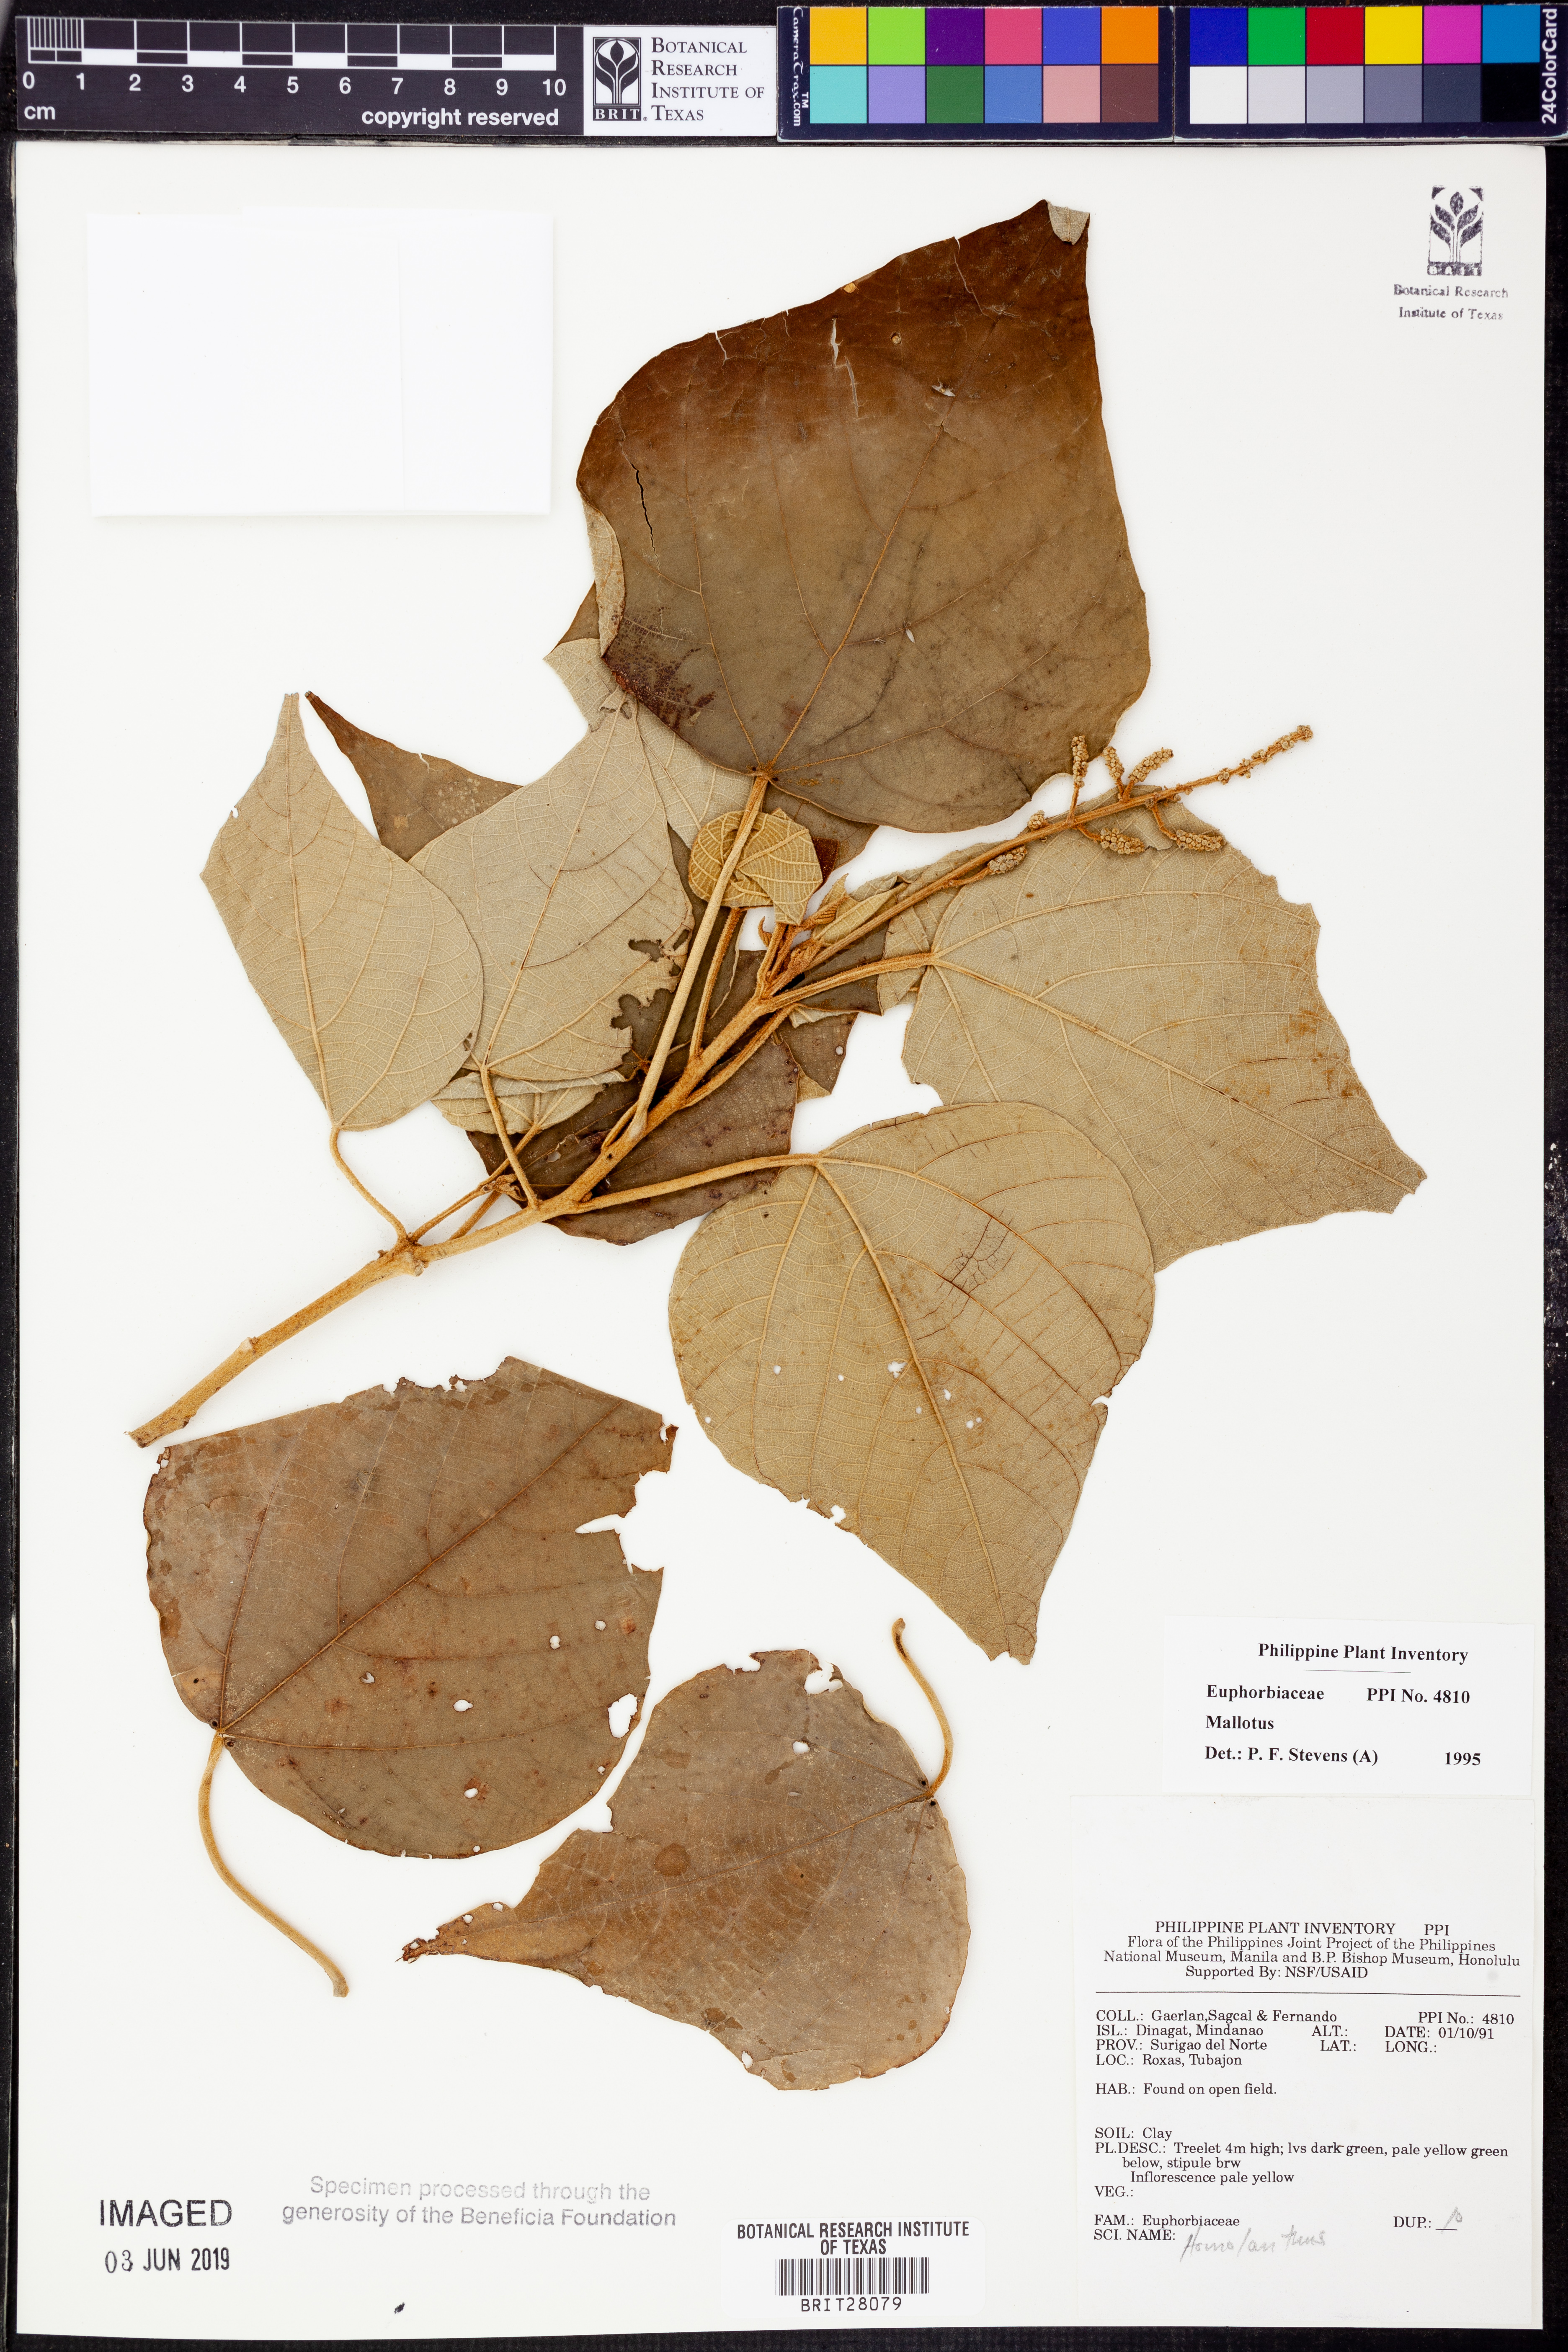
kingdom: Plantae
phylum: Tracheophyta
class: Magnoliopsida
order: Malpighiales
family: Euphorbiaceae
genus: Mallotus
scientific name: Mallotus
